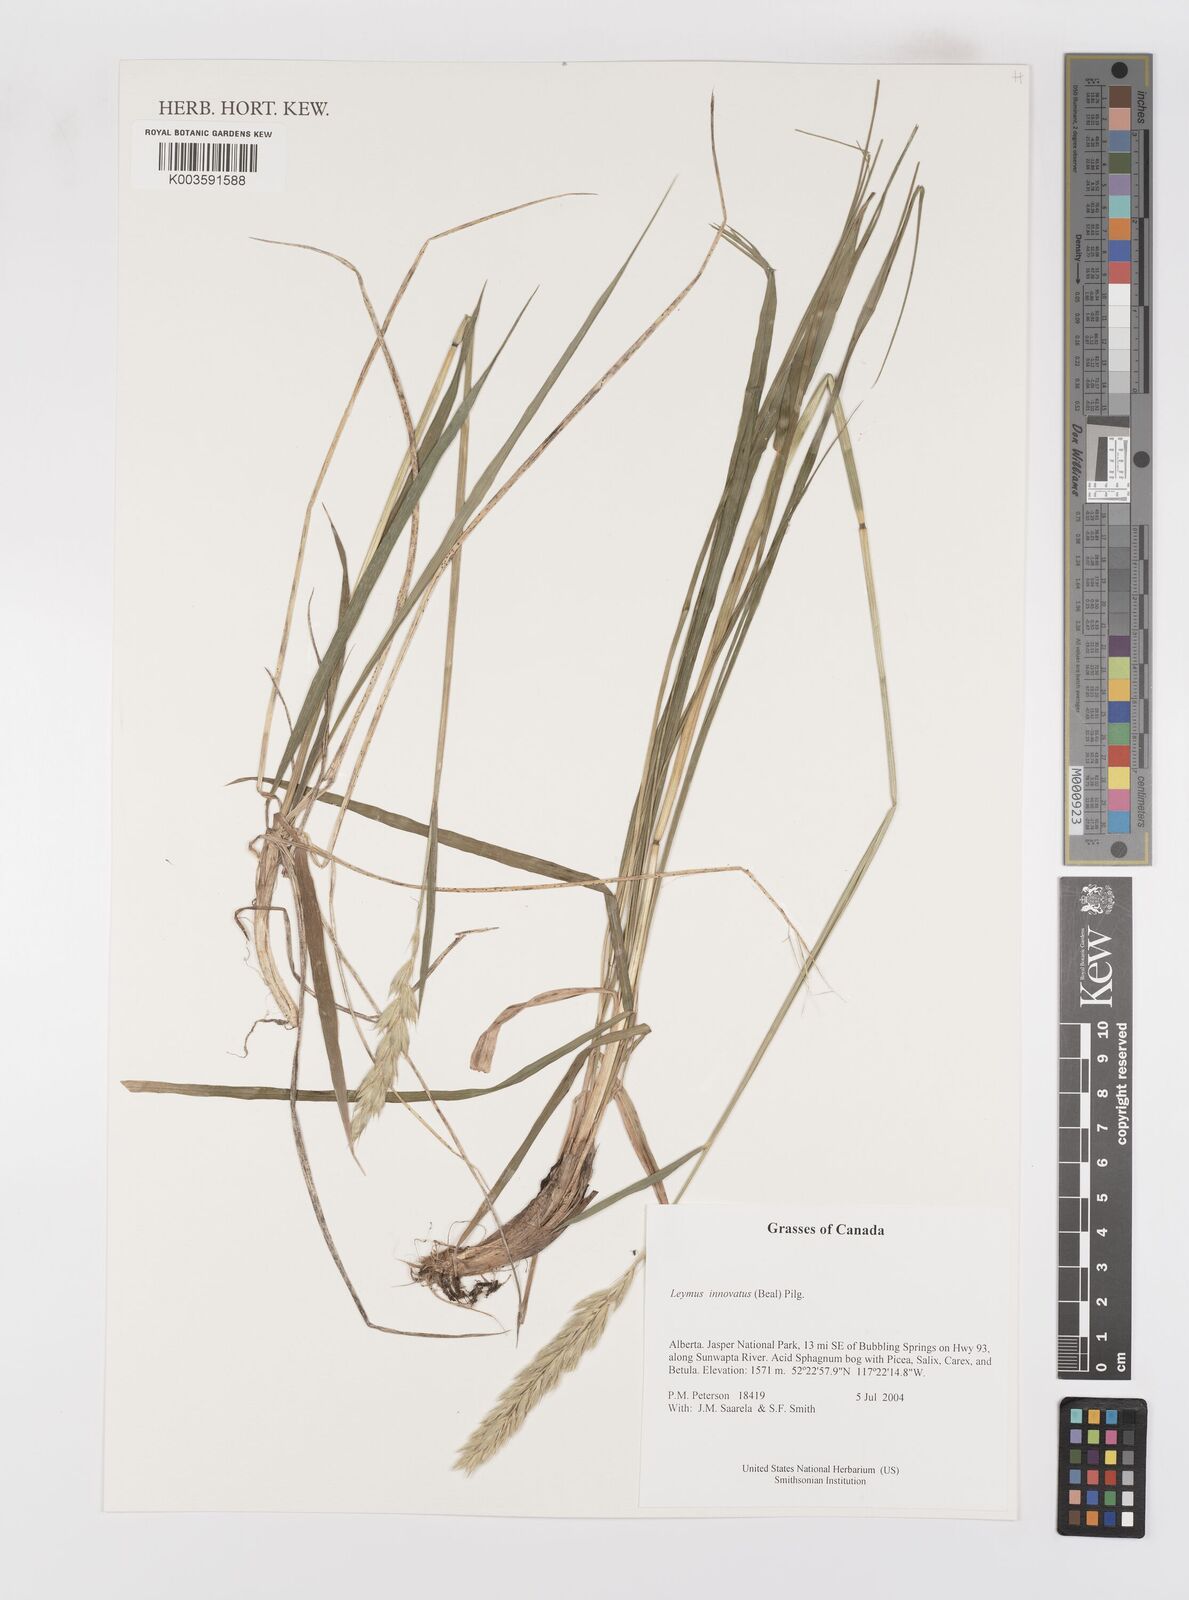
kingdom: Plantae
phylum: Tracheophyta
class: Liliopsida
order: Poales
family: Poaceae
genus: Leymus
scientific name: Leymus innovatus
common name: Boreal wild rye
